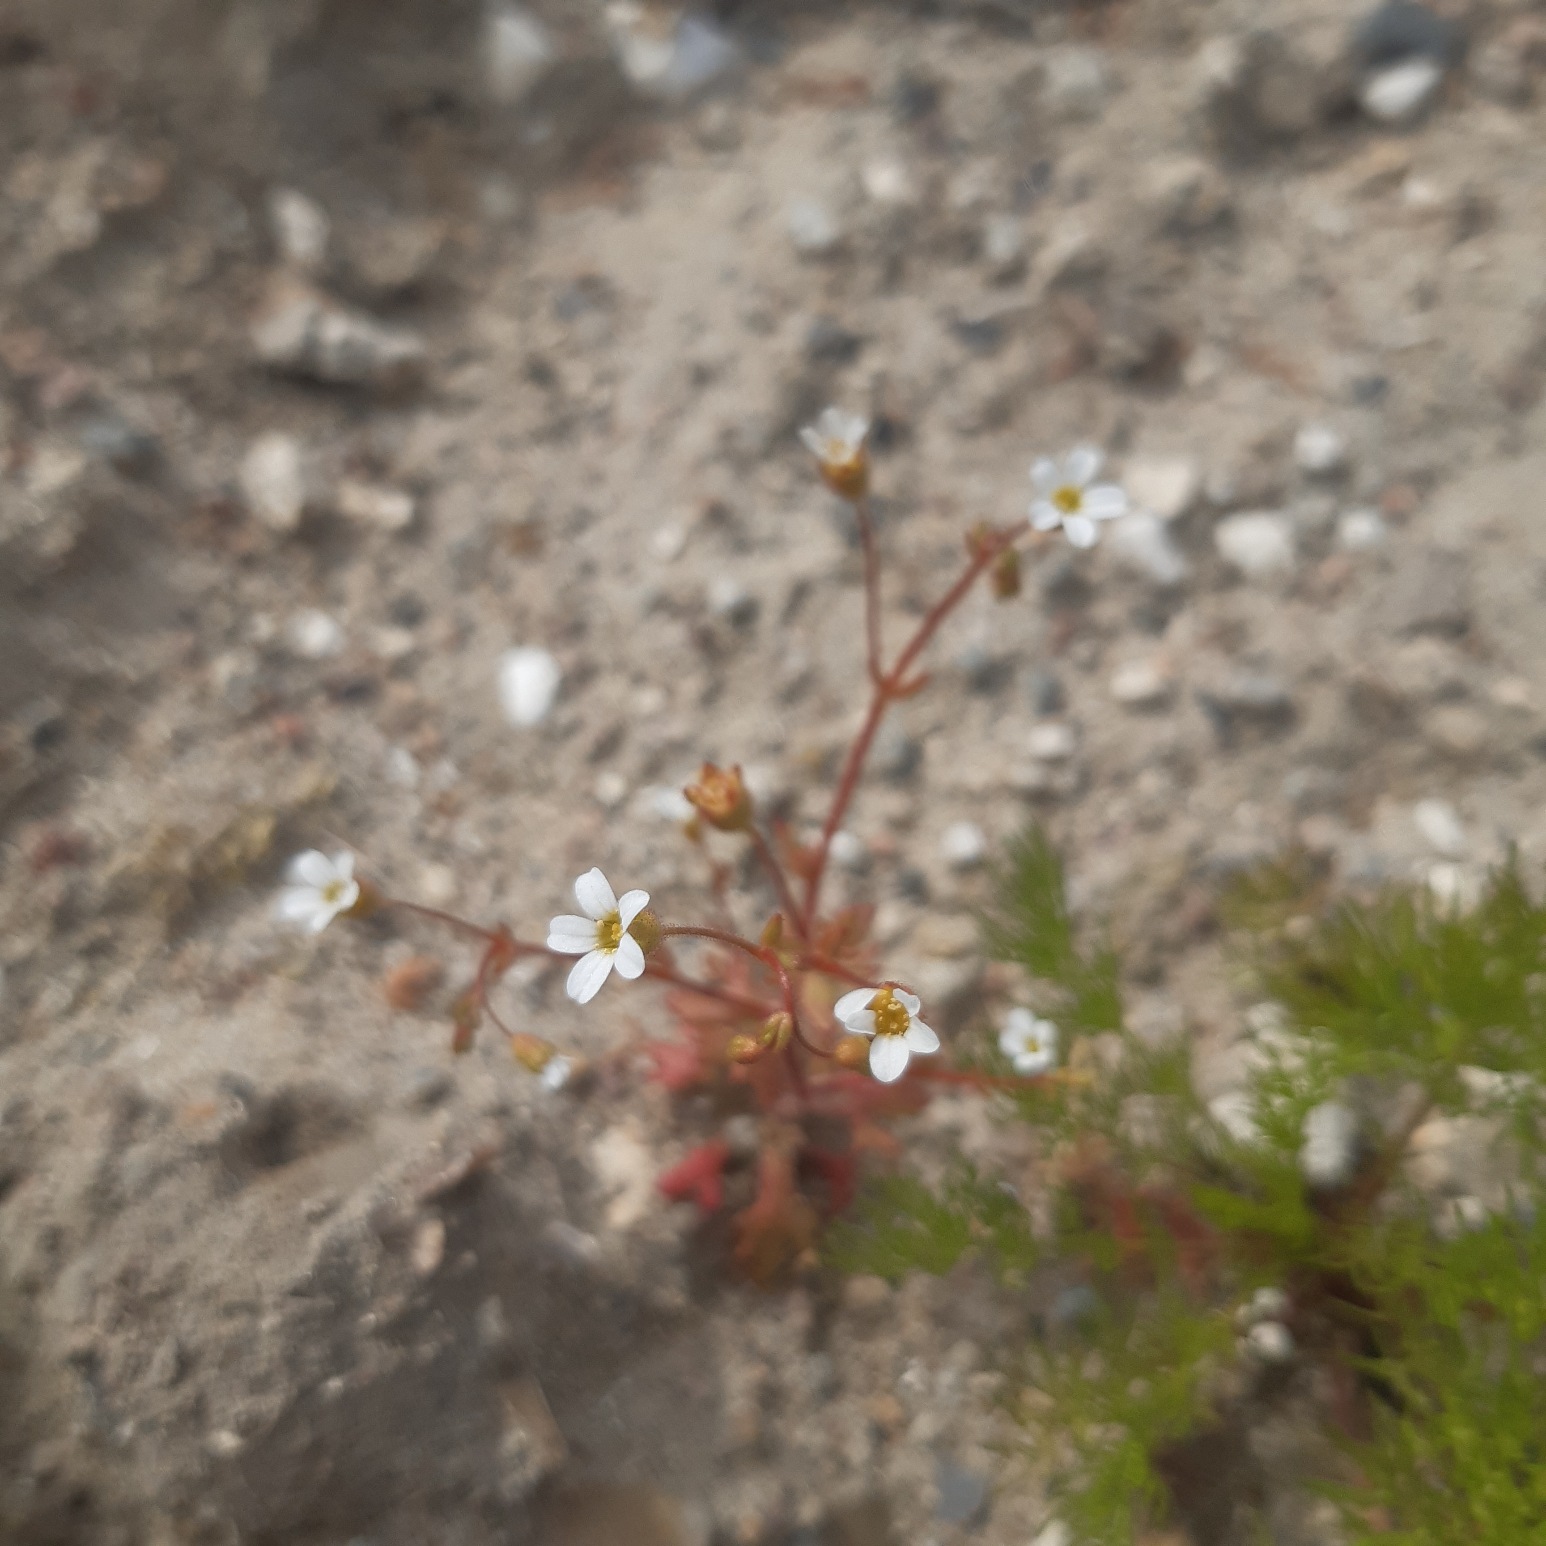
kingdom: Plantae
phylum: Tracheophyta
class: Magnoliopsida
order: Saxifragales
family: Saxifragaceae
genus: Saxifraga
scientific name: Saxifraga tridactylites
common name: Trekløft-stenbræk
